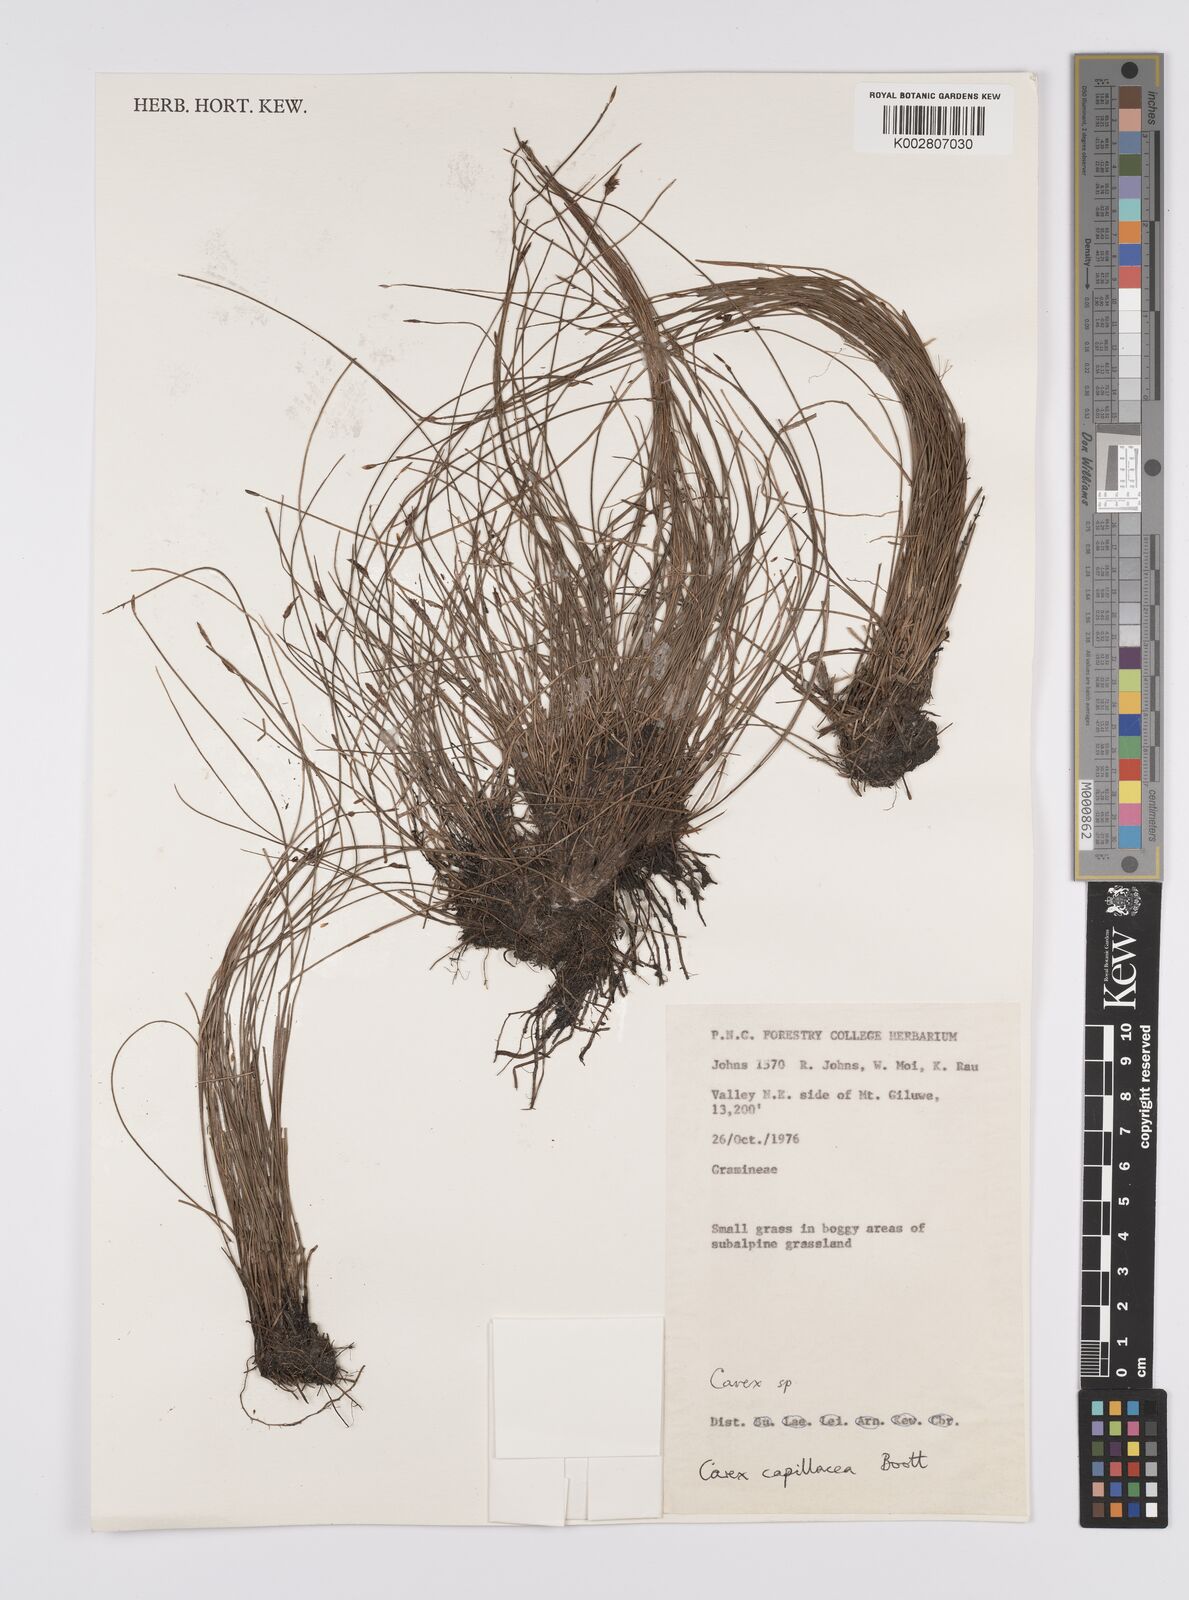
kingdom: Plantae
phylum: Tracheophyta
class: Liliopsida
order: Poales
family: Cyperaceae
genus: Carex
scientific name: Carex capillacea
